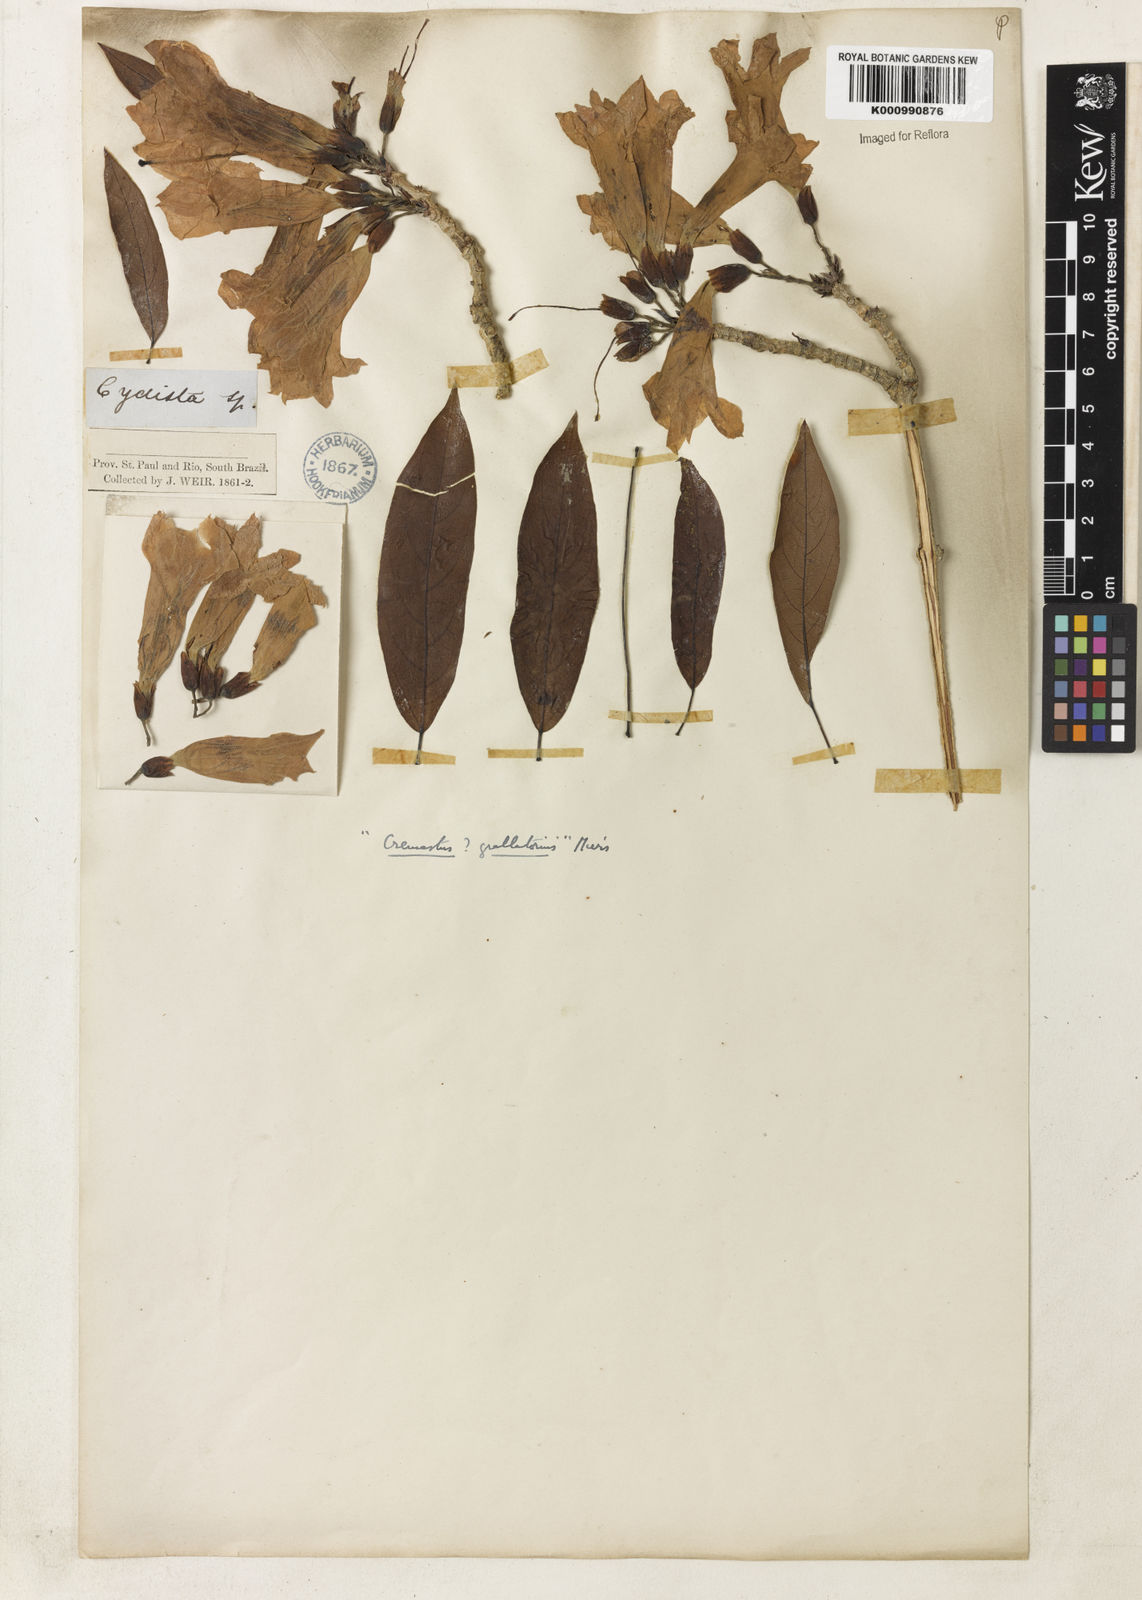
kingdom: Plantae
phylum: Tracheophyta
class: Magnoliopsida
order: Lamiales
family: Bignoniaceae
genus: Xylophragma
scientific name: Xylophragma pratense
